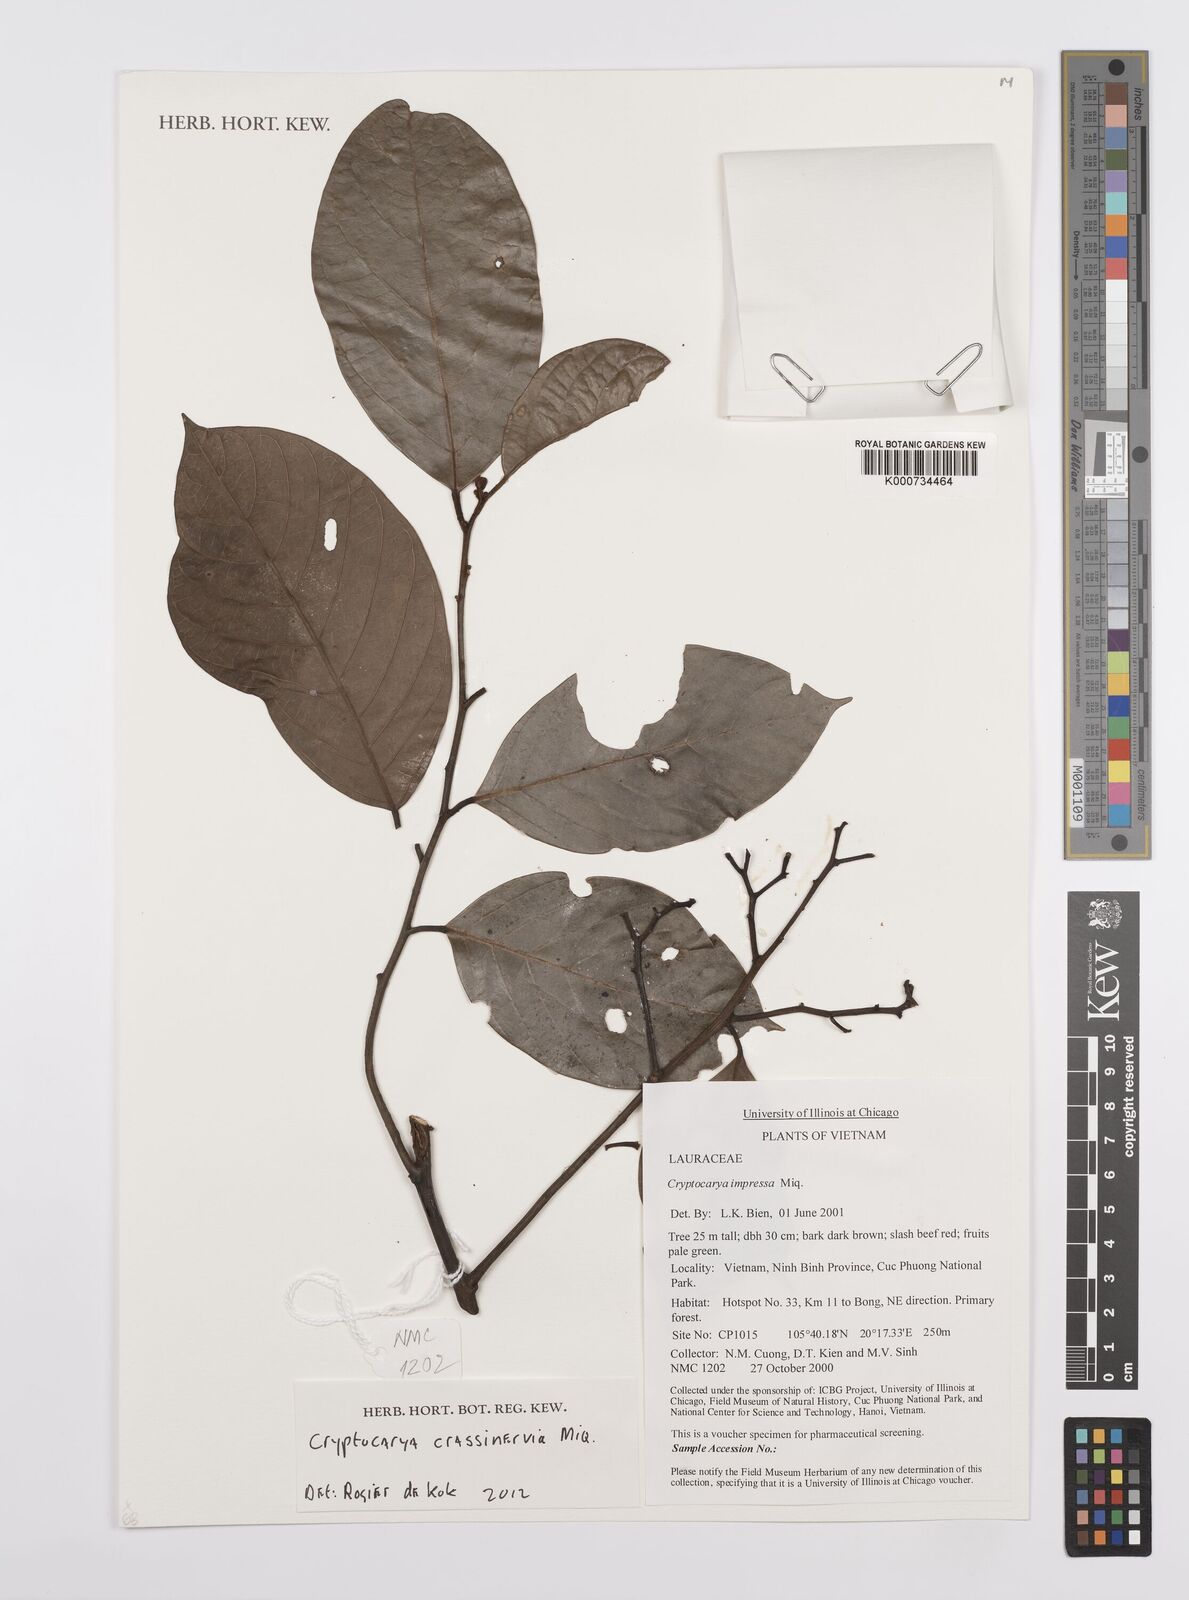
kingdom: Plantae
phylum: Tracheophyta
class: Magnoliopsida
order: Laurales
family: Lauraceae
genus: Cryptocarya
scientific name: Cryptocarya diversifolia
